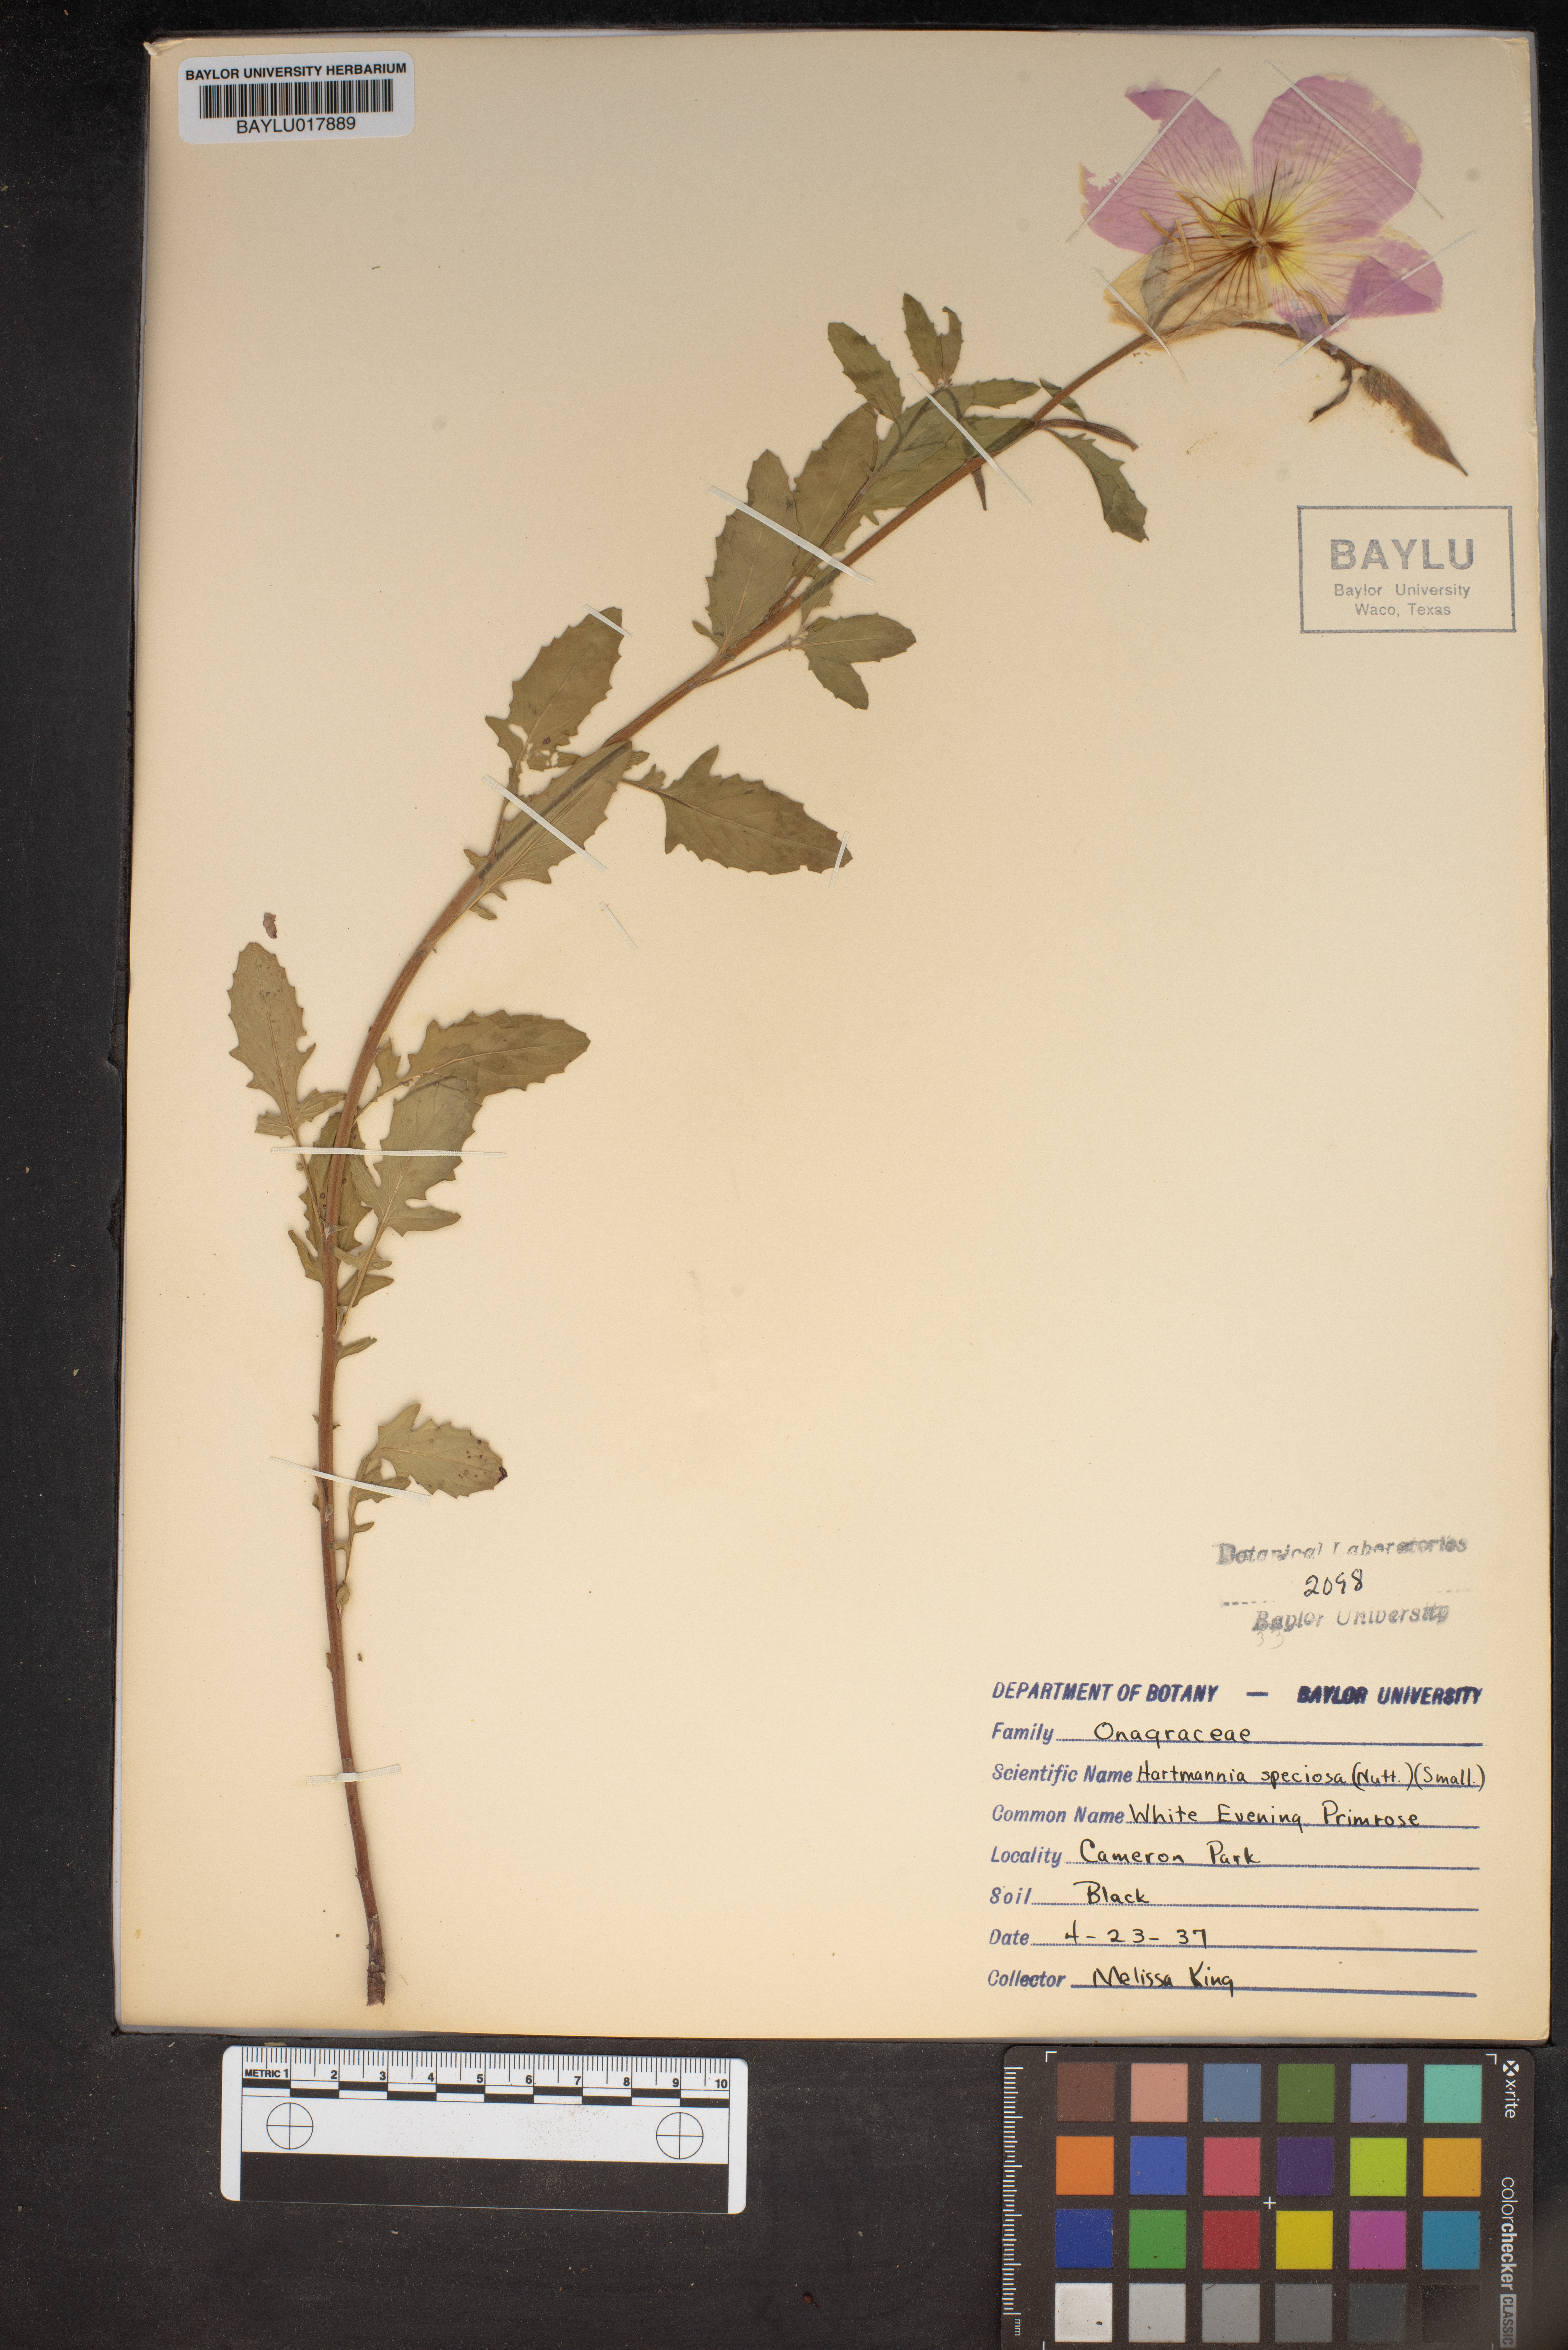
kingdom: Plantae
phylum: Tracheophyta
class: Magnoliopsida
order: Myrtales
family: Onagraceae
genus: Oenothera
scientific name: Oenothera speciosa
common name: White evening-primrose
